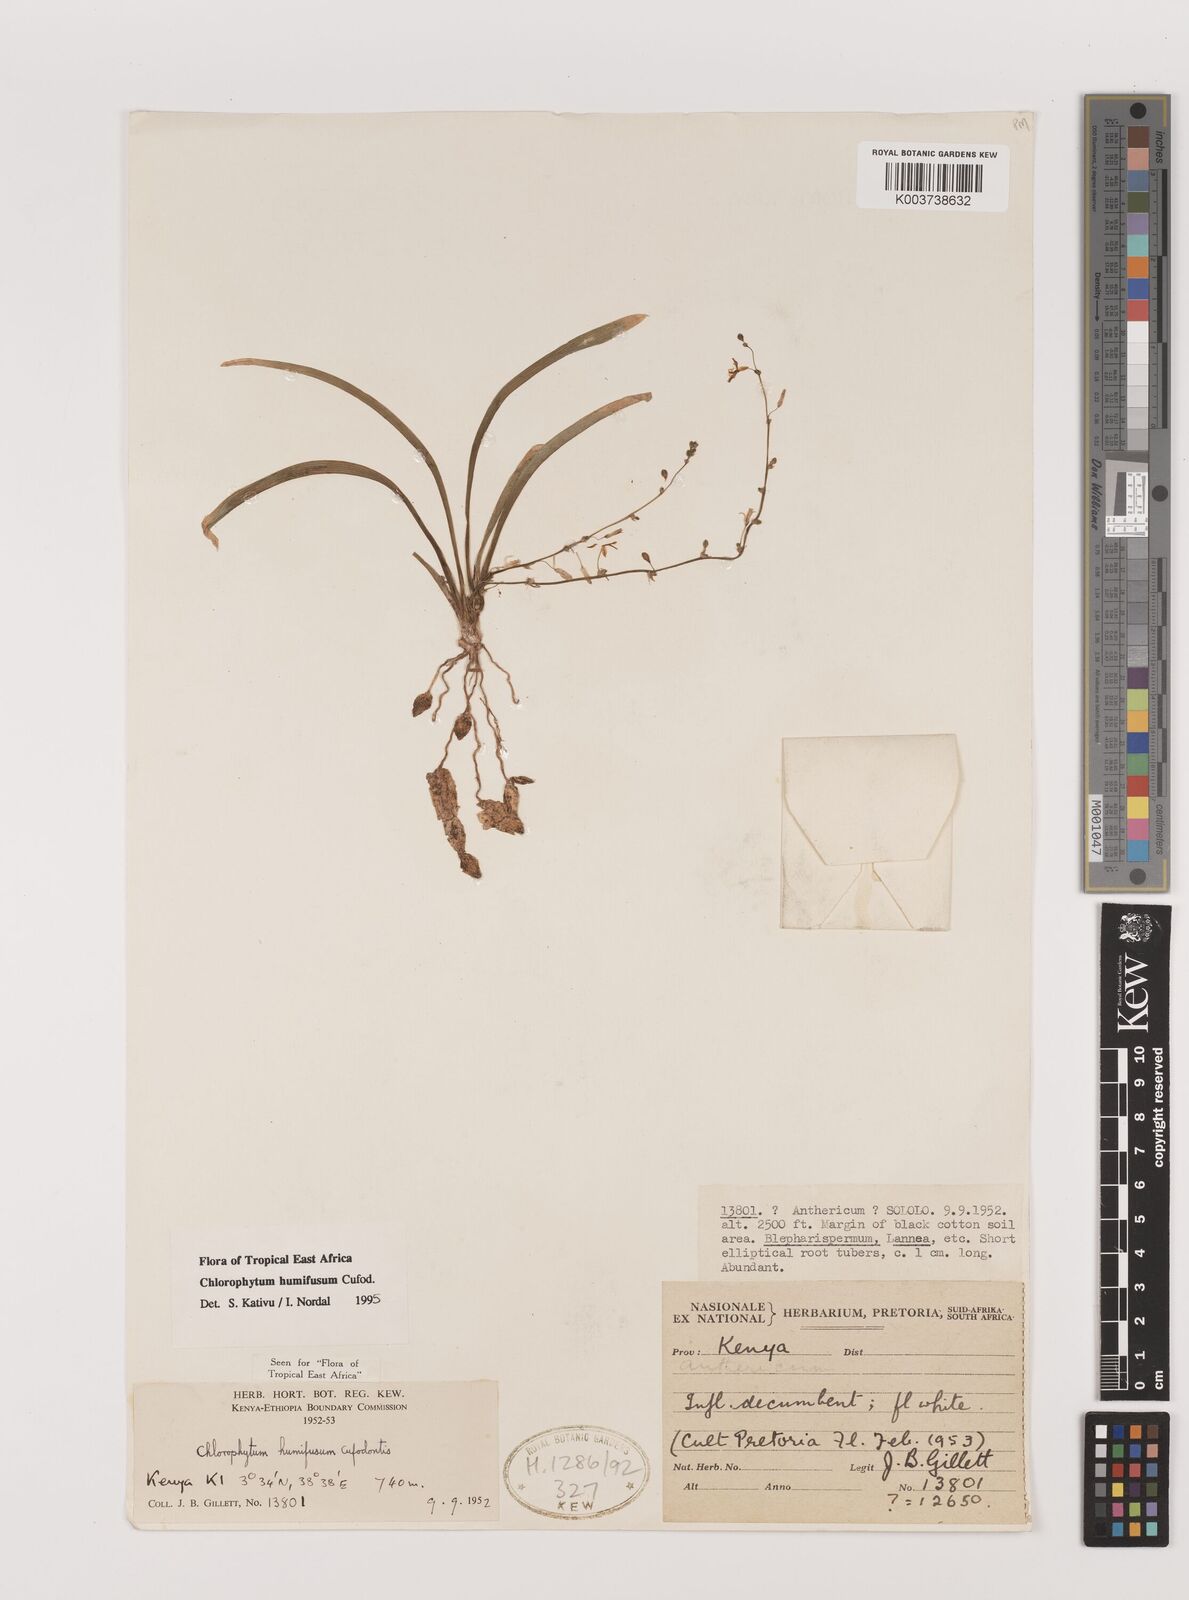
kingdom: Plantae
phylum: Tracheophyta
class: Liliopsida
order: Asparagales
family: Asparagaceae
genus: Chlorophytum
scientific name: Chlorophytum humifusum
